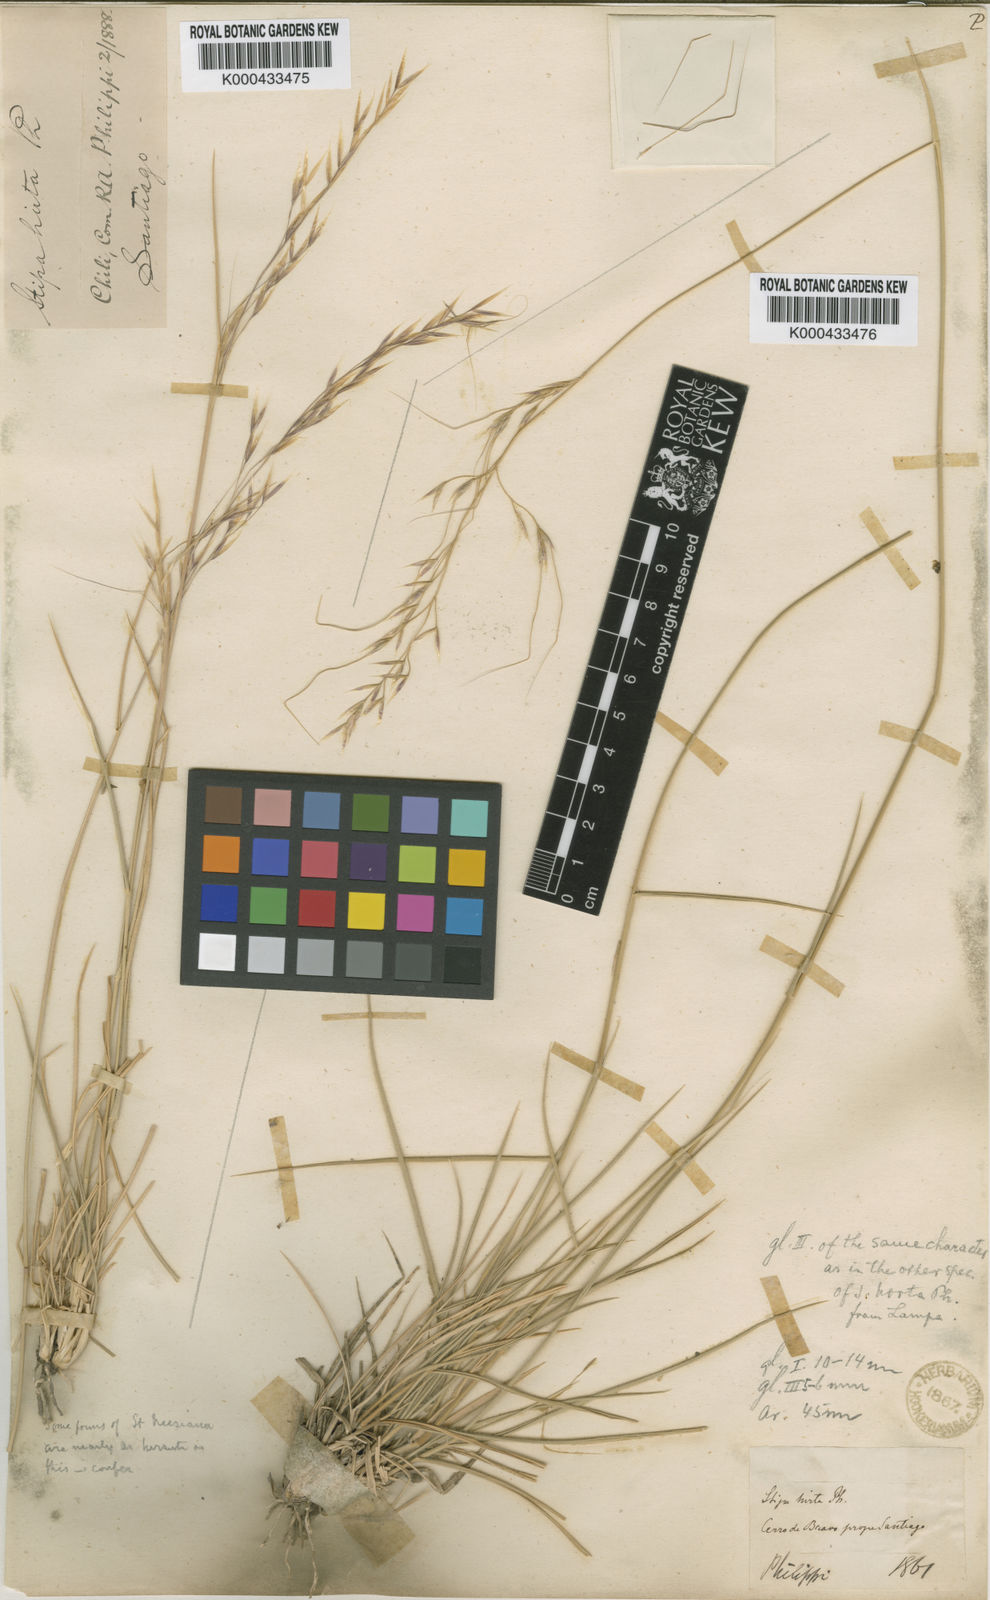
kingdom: Plantae
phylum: Tracheophyta
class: Liliopsida
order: Poales
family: Poaceae
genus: Nassella
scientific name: Nassella duriuscula
